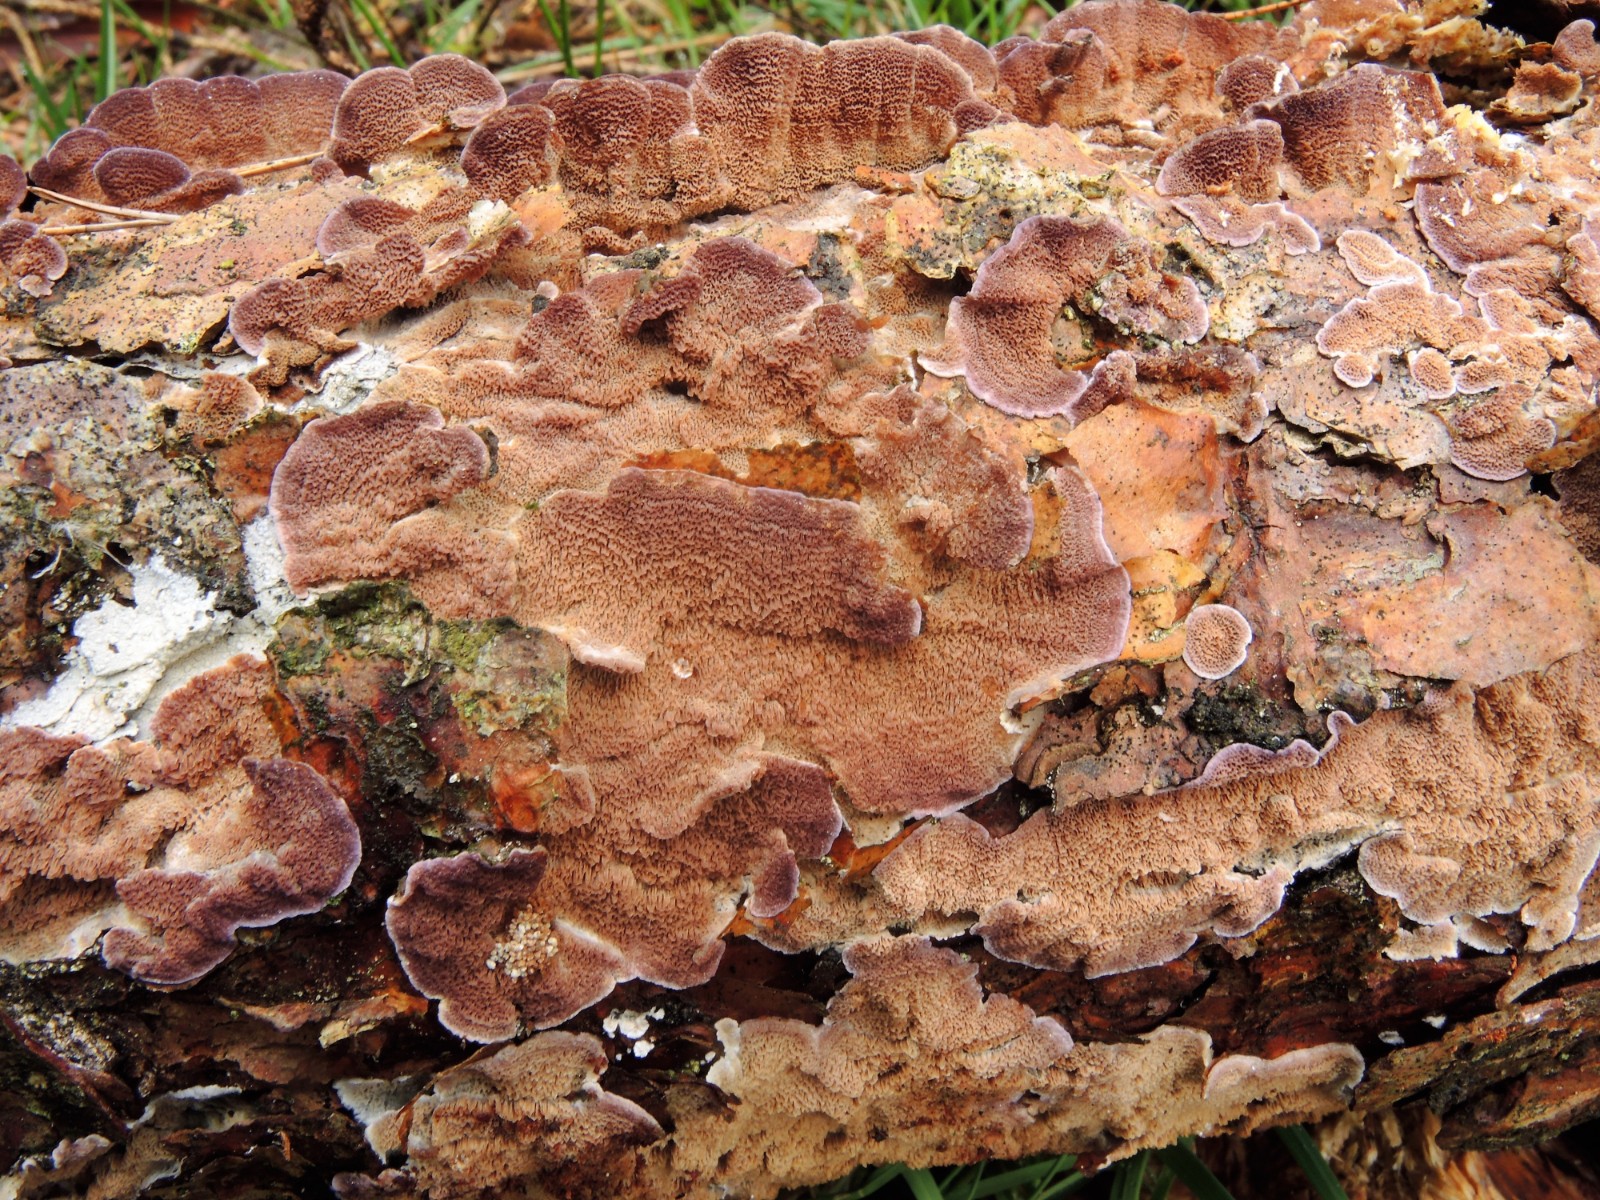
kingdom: Fungi
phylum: Basidiomycota
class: Agaricomycetes
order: Hymenochaetales
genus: Trichaptum
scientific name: Trichaptum abietinum
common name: almindelig violporesvamp
